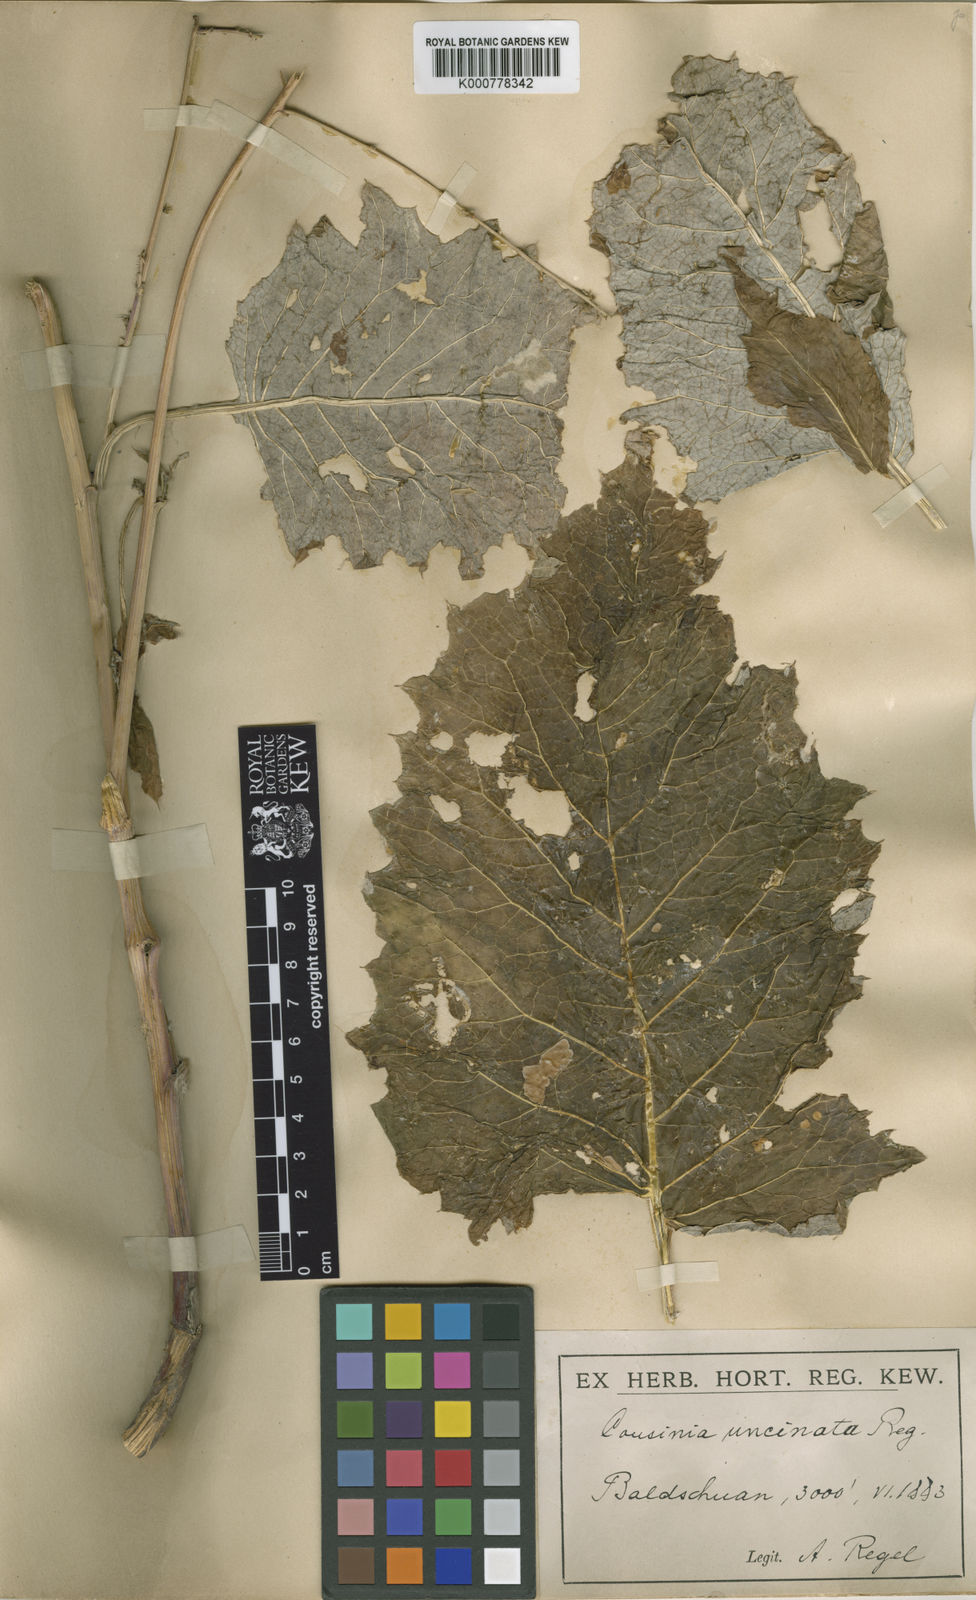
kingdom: Plantae
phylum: Tracheophyta
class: Magnoliopsida
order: Asterales
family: Asteraceae
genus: Arctium
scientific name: Arctium umbrosum
